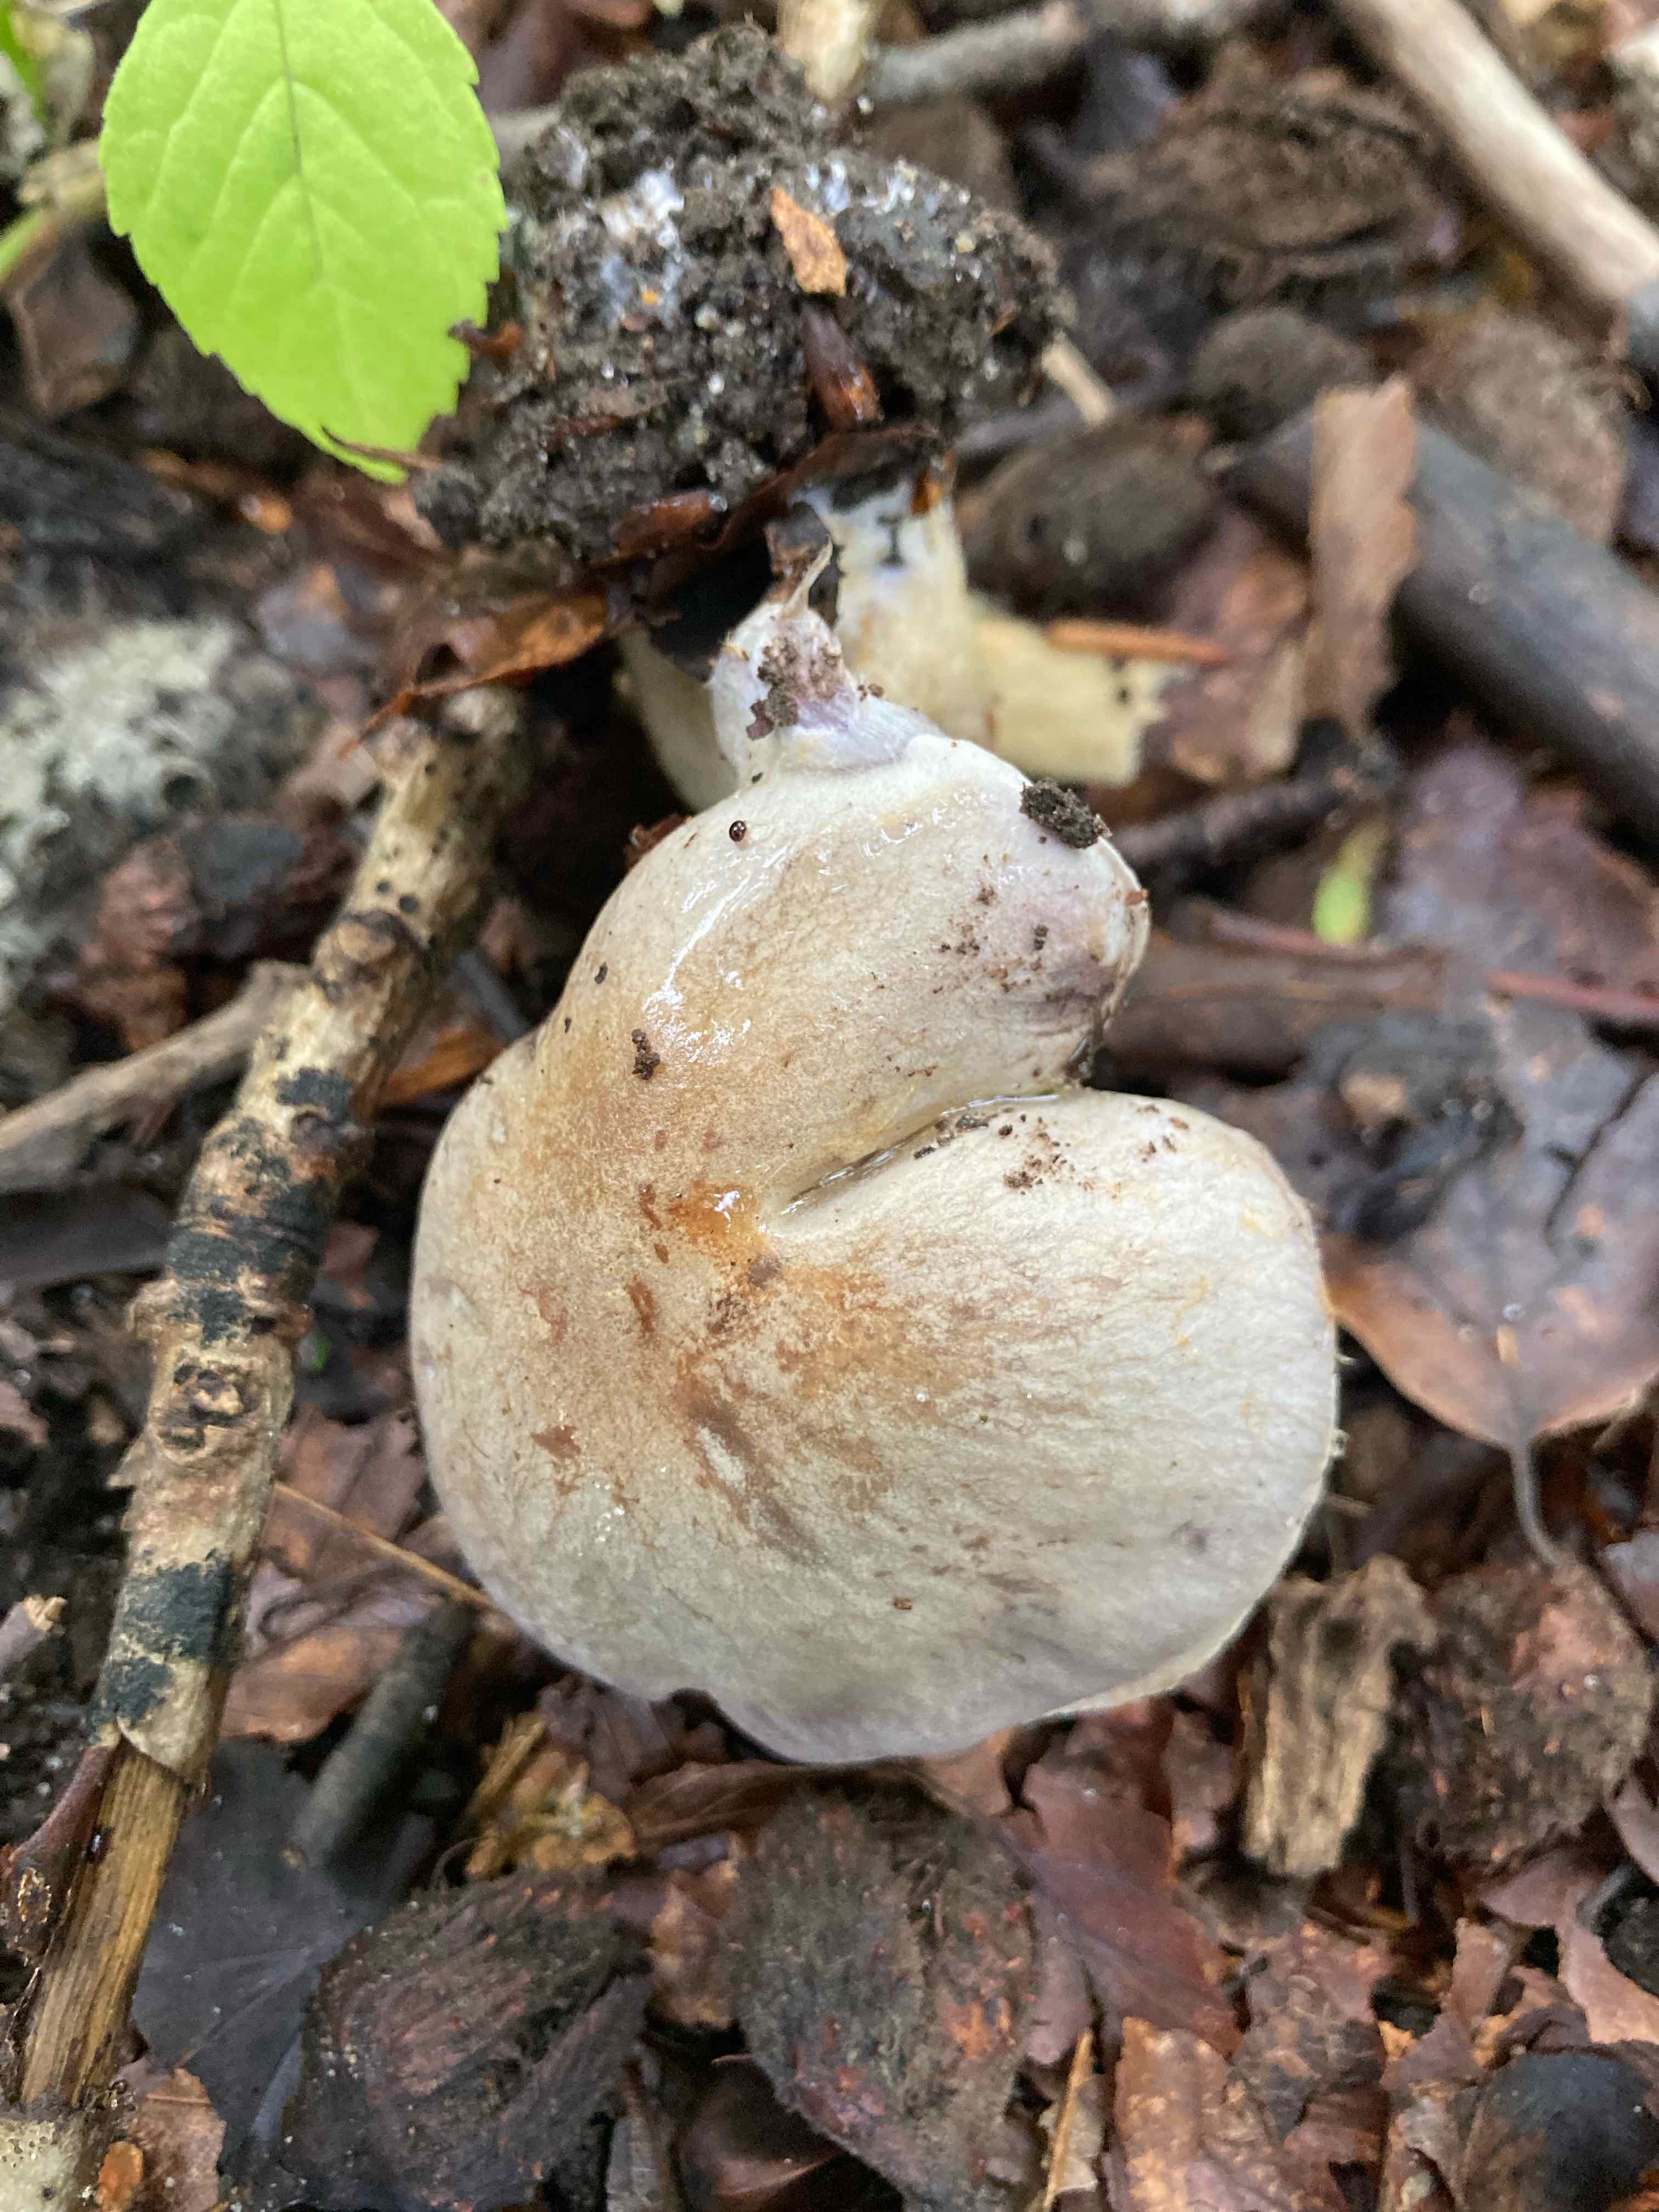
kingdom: Fungi
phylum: Basidiomycota
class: Agaricomycetes
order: Agaricales
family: Cortinariaceae
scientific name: Cortinariaceae
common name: slørhatfamilien
